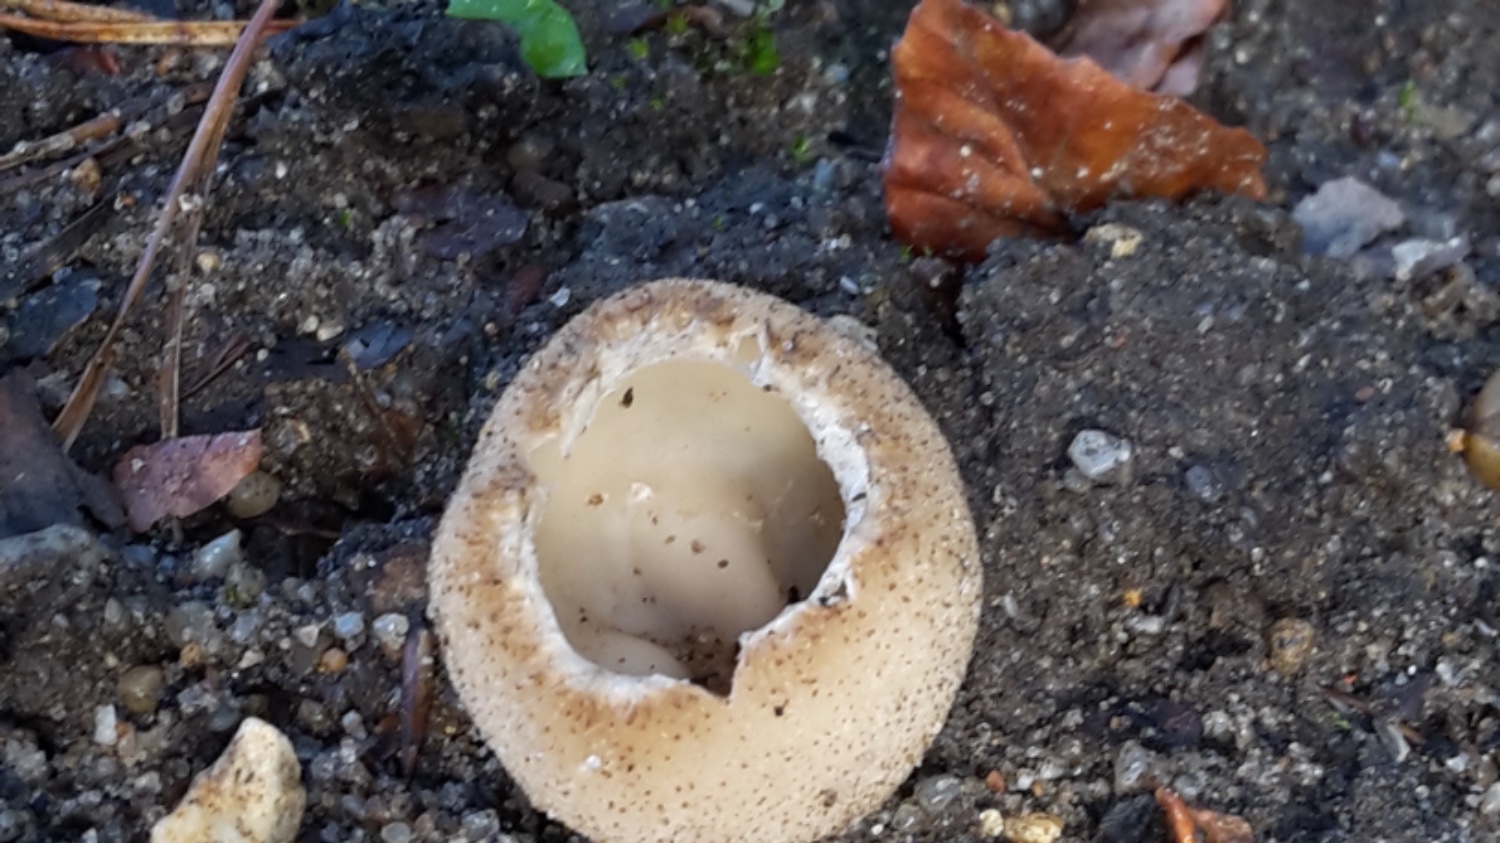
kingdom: Fungi
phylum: Ascomycota
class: Pezizomycetes
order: Pezizales
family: Pyronemataceae
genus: Tarzetta
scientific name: Tarzetta cupularis
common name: gulbrun pokalbæger
